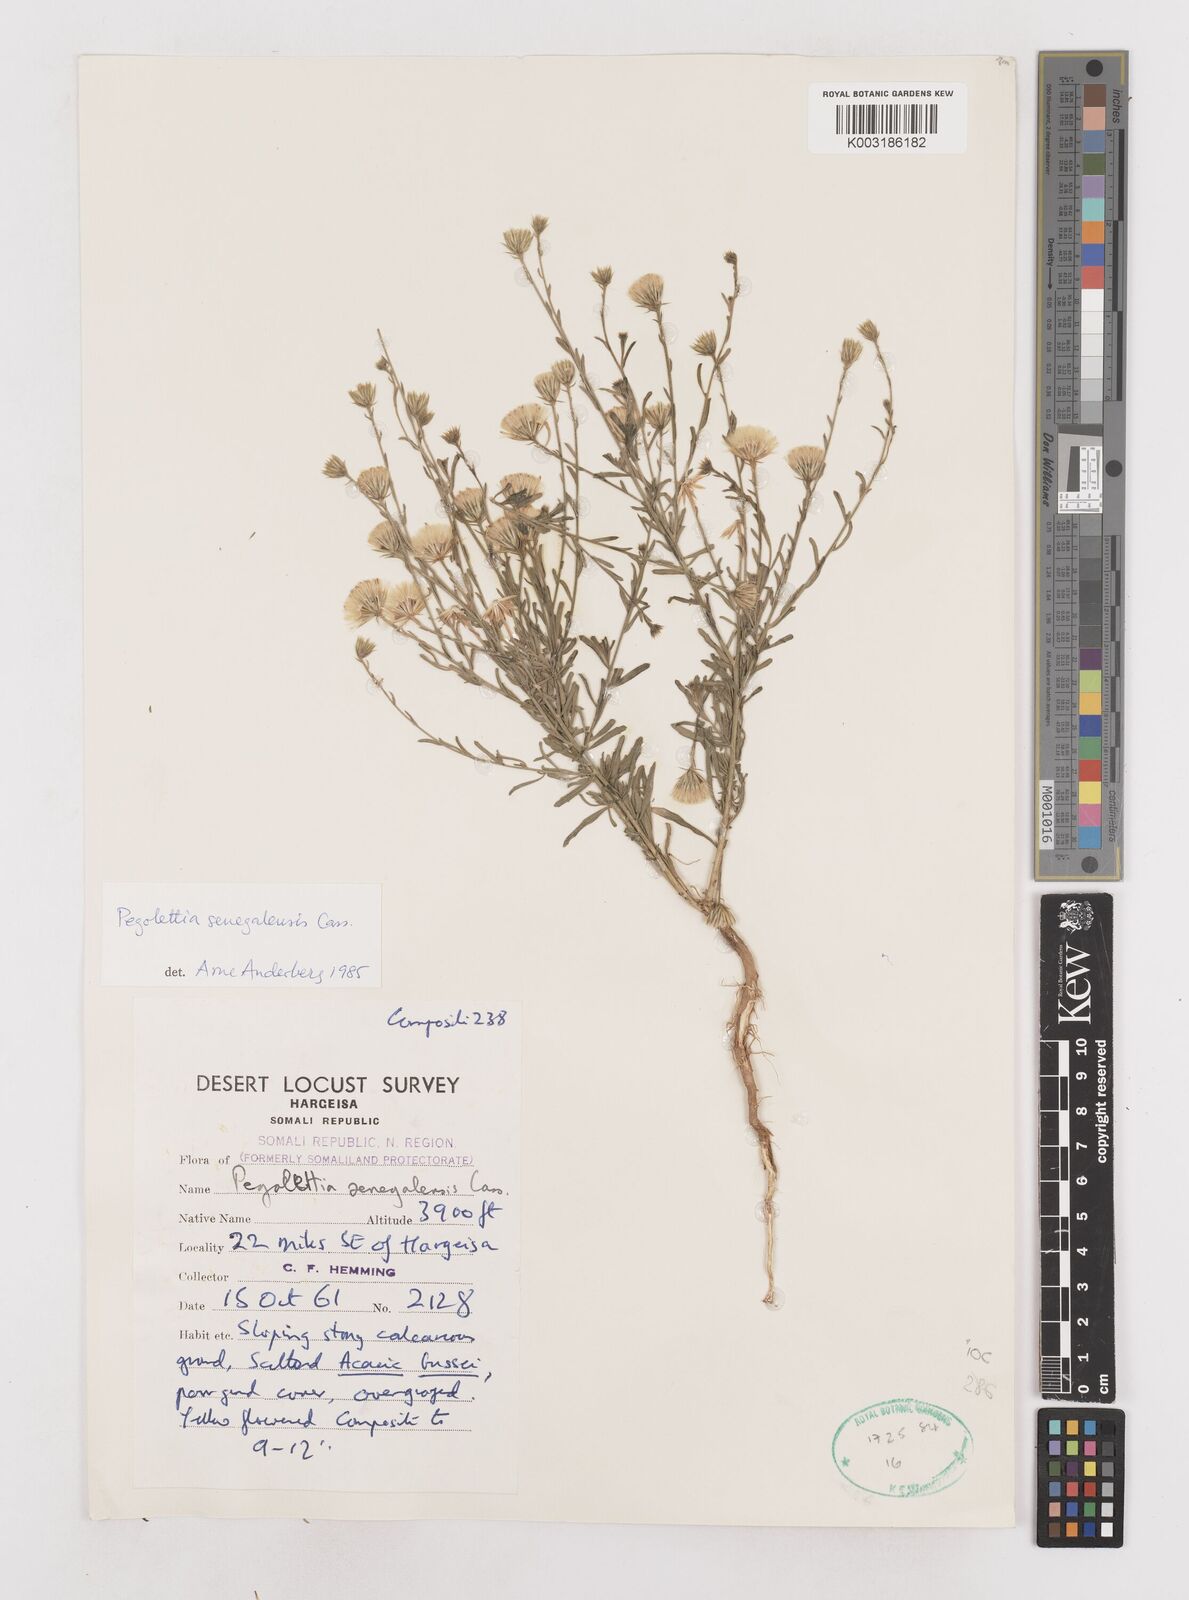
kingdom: Plantae
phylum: Tracheophyta
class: Magnoliopsida
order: Asterales
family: Asteraceae
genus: Pegolettia
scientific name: Pegolettia senegalensis
